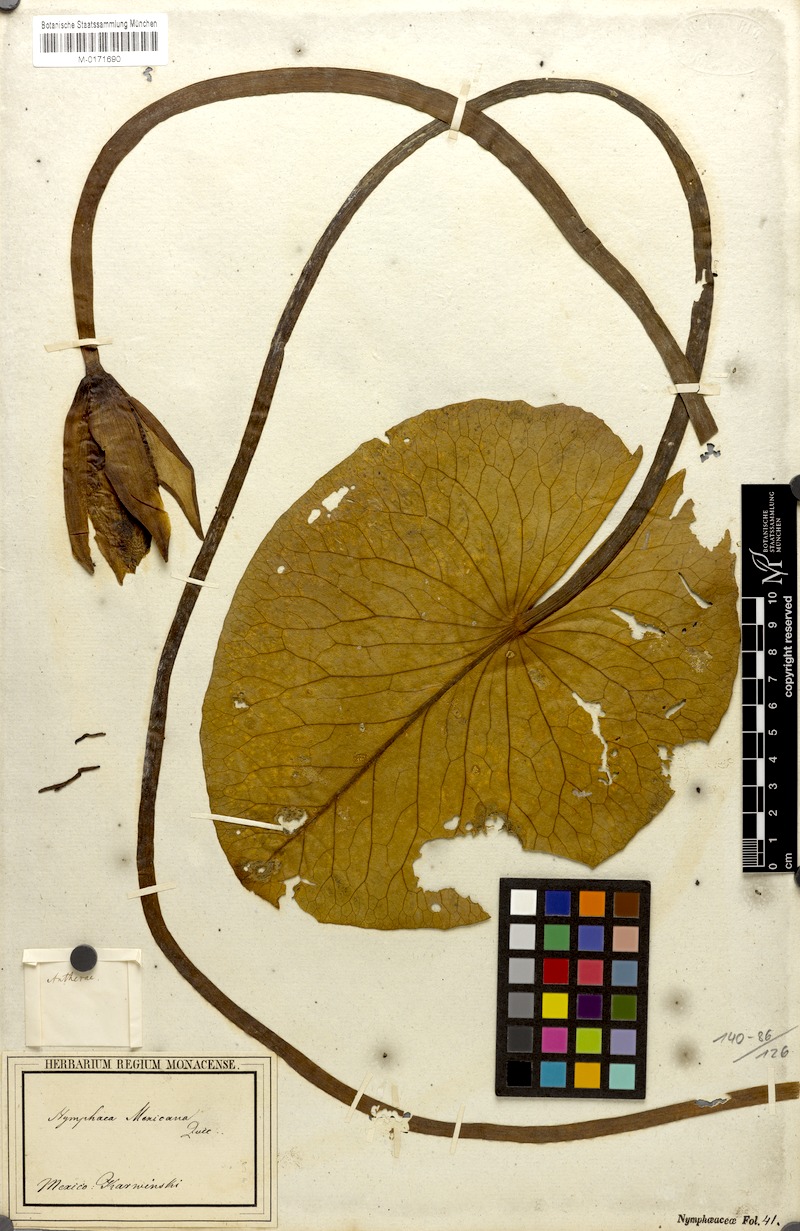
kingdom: Plantae
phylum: Tracheophyta
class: Magnoliopsida
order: Nymphaeales
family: Nymphaeaceae
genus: Nymphaea
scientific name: Nymphaea mexicana
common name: Banana water-lily
